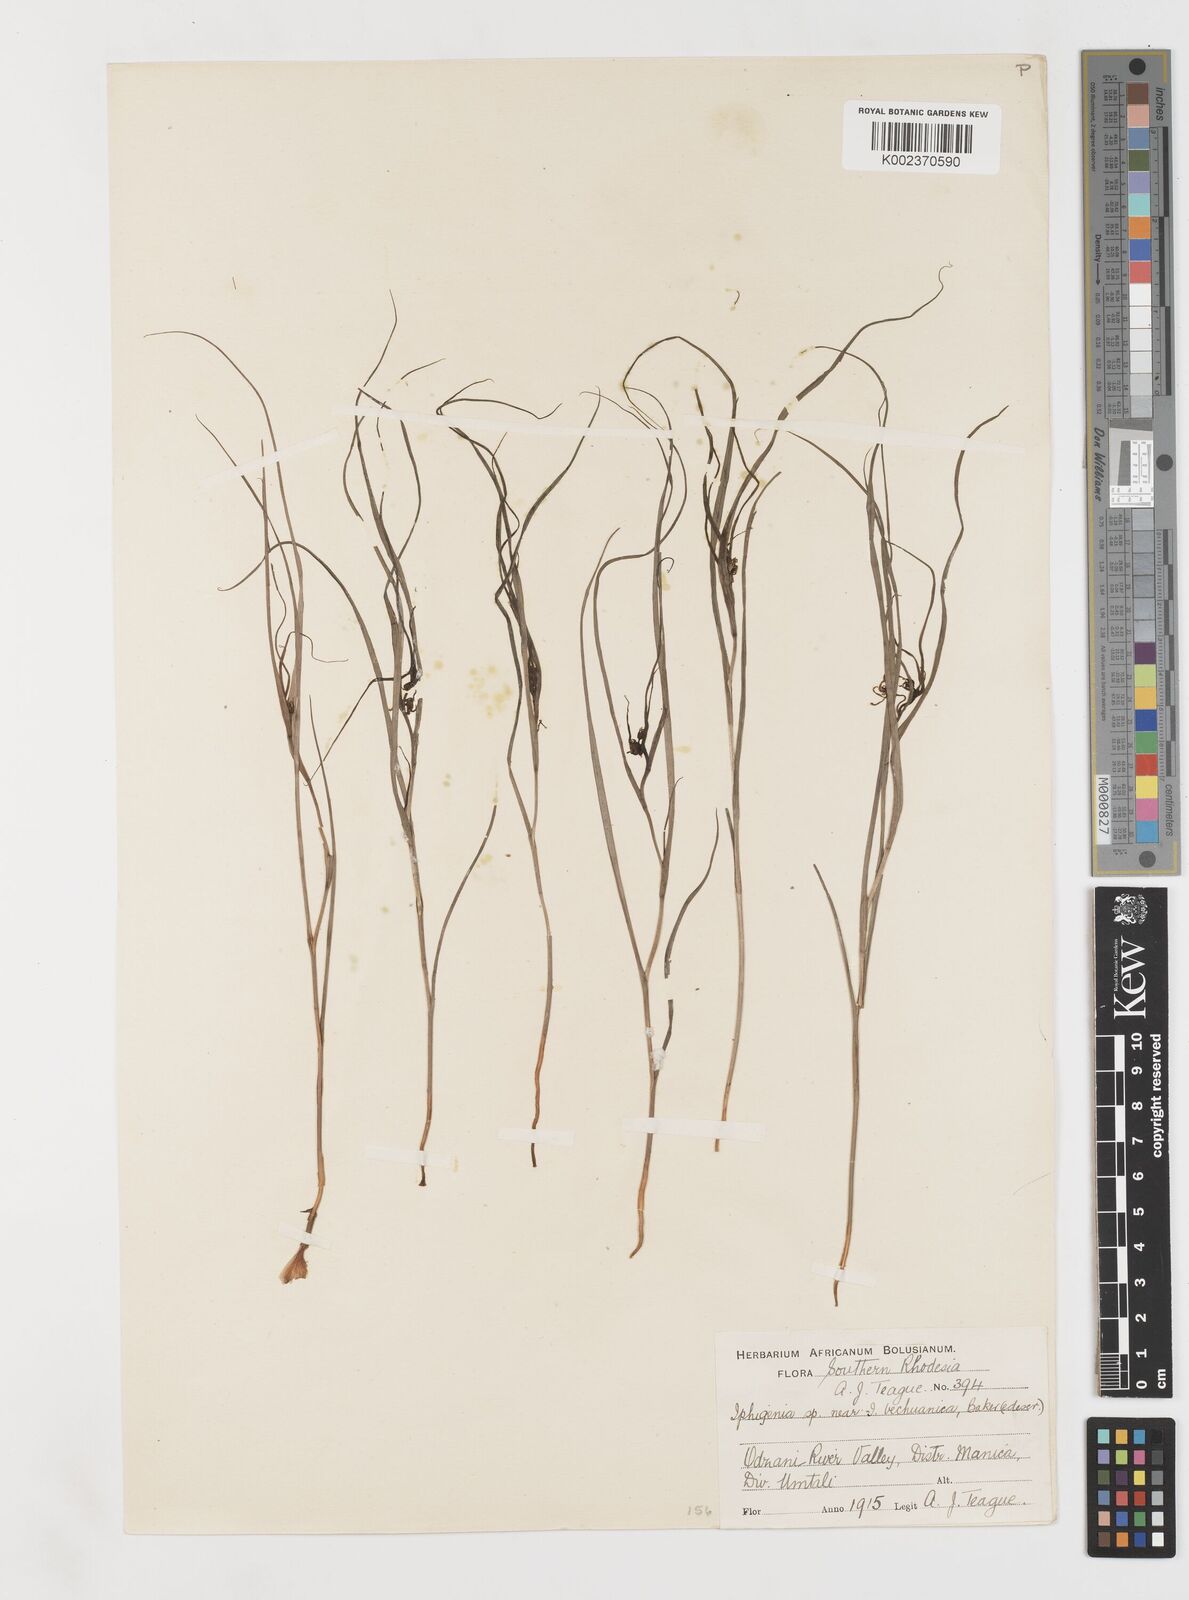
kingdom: Plantae
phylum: Tracheophyta
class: Liliopsida
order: Liliales
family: Colchicaceae
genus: Iphigenia
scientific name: Iphigenia oliveri
